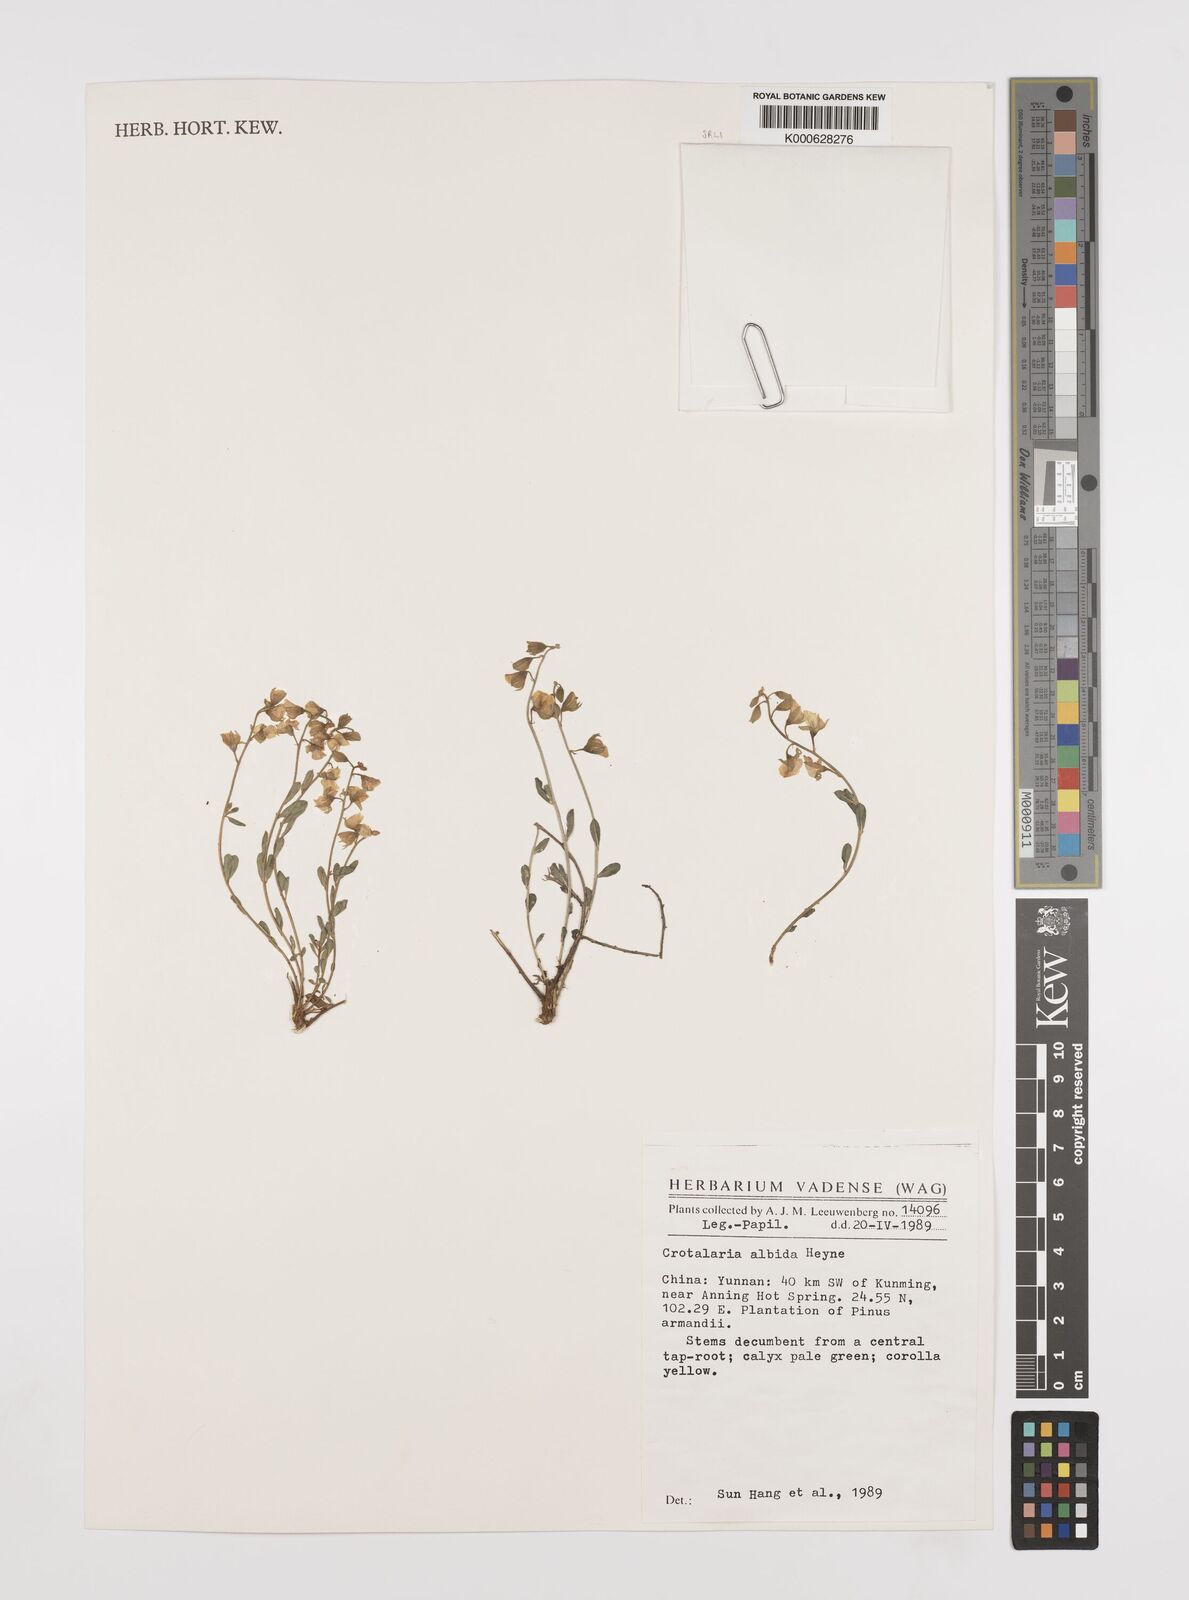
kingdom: Plantae
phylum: Tracheophyta
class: Magnoliopsida
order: Fabales
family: Fabaceae
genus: Crotalaria
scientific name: Crotalaria albida
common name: Taiwan crotalaria
